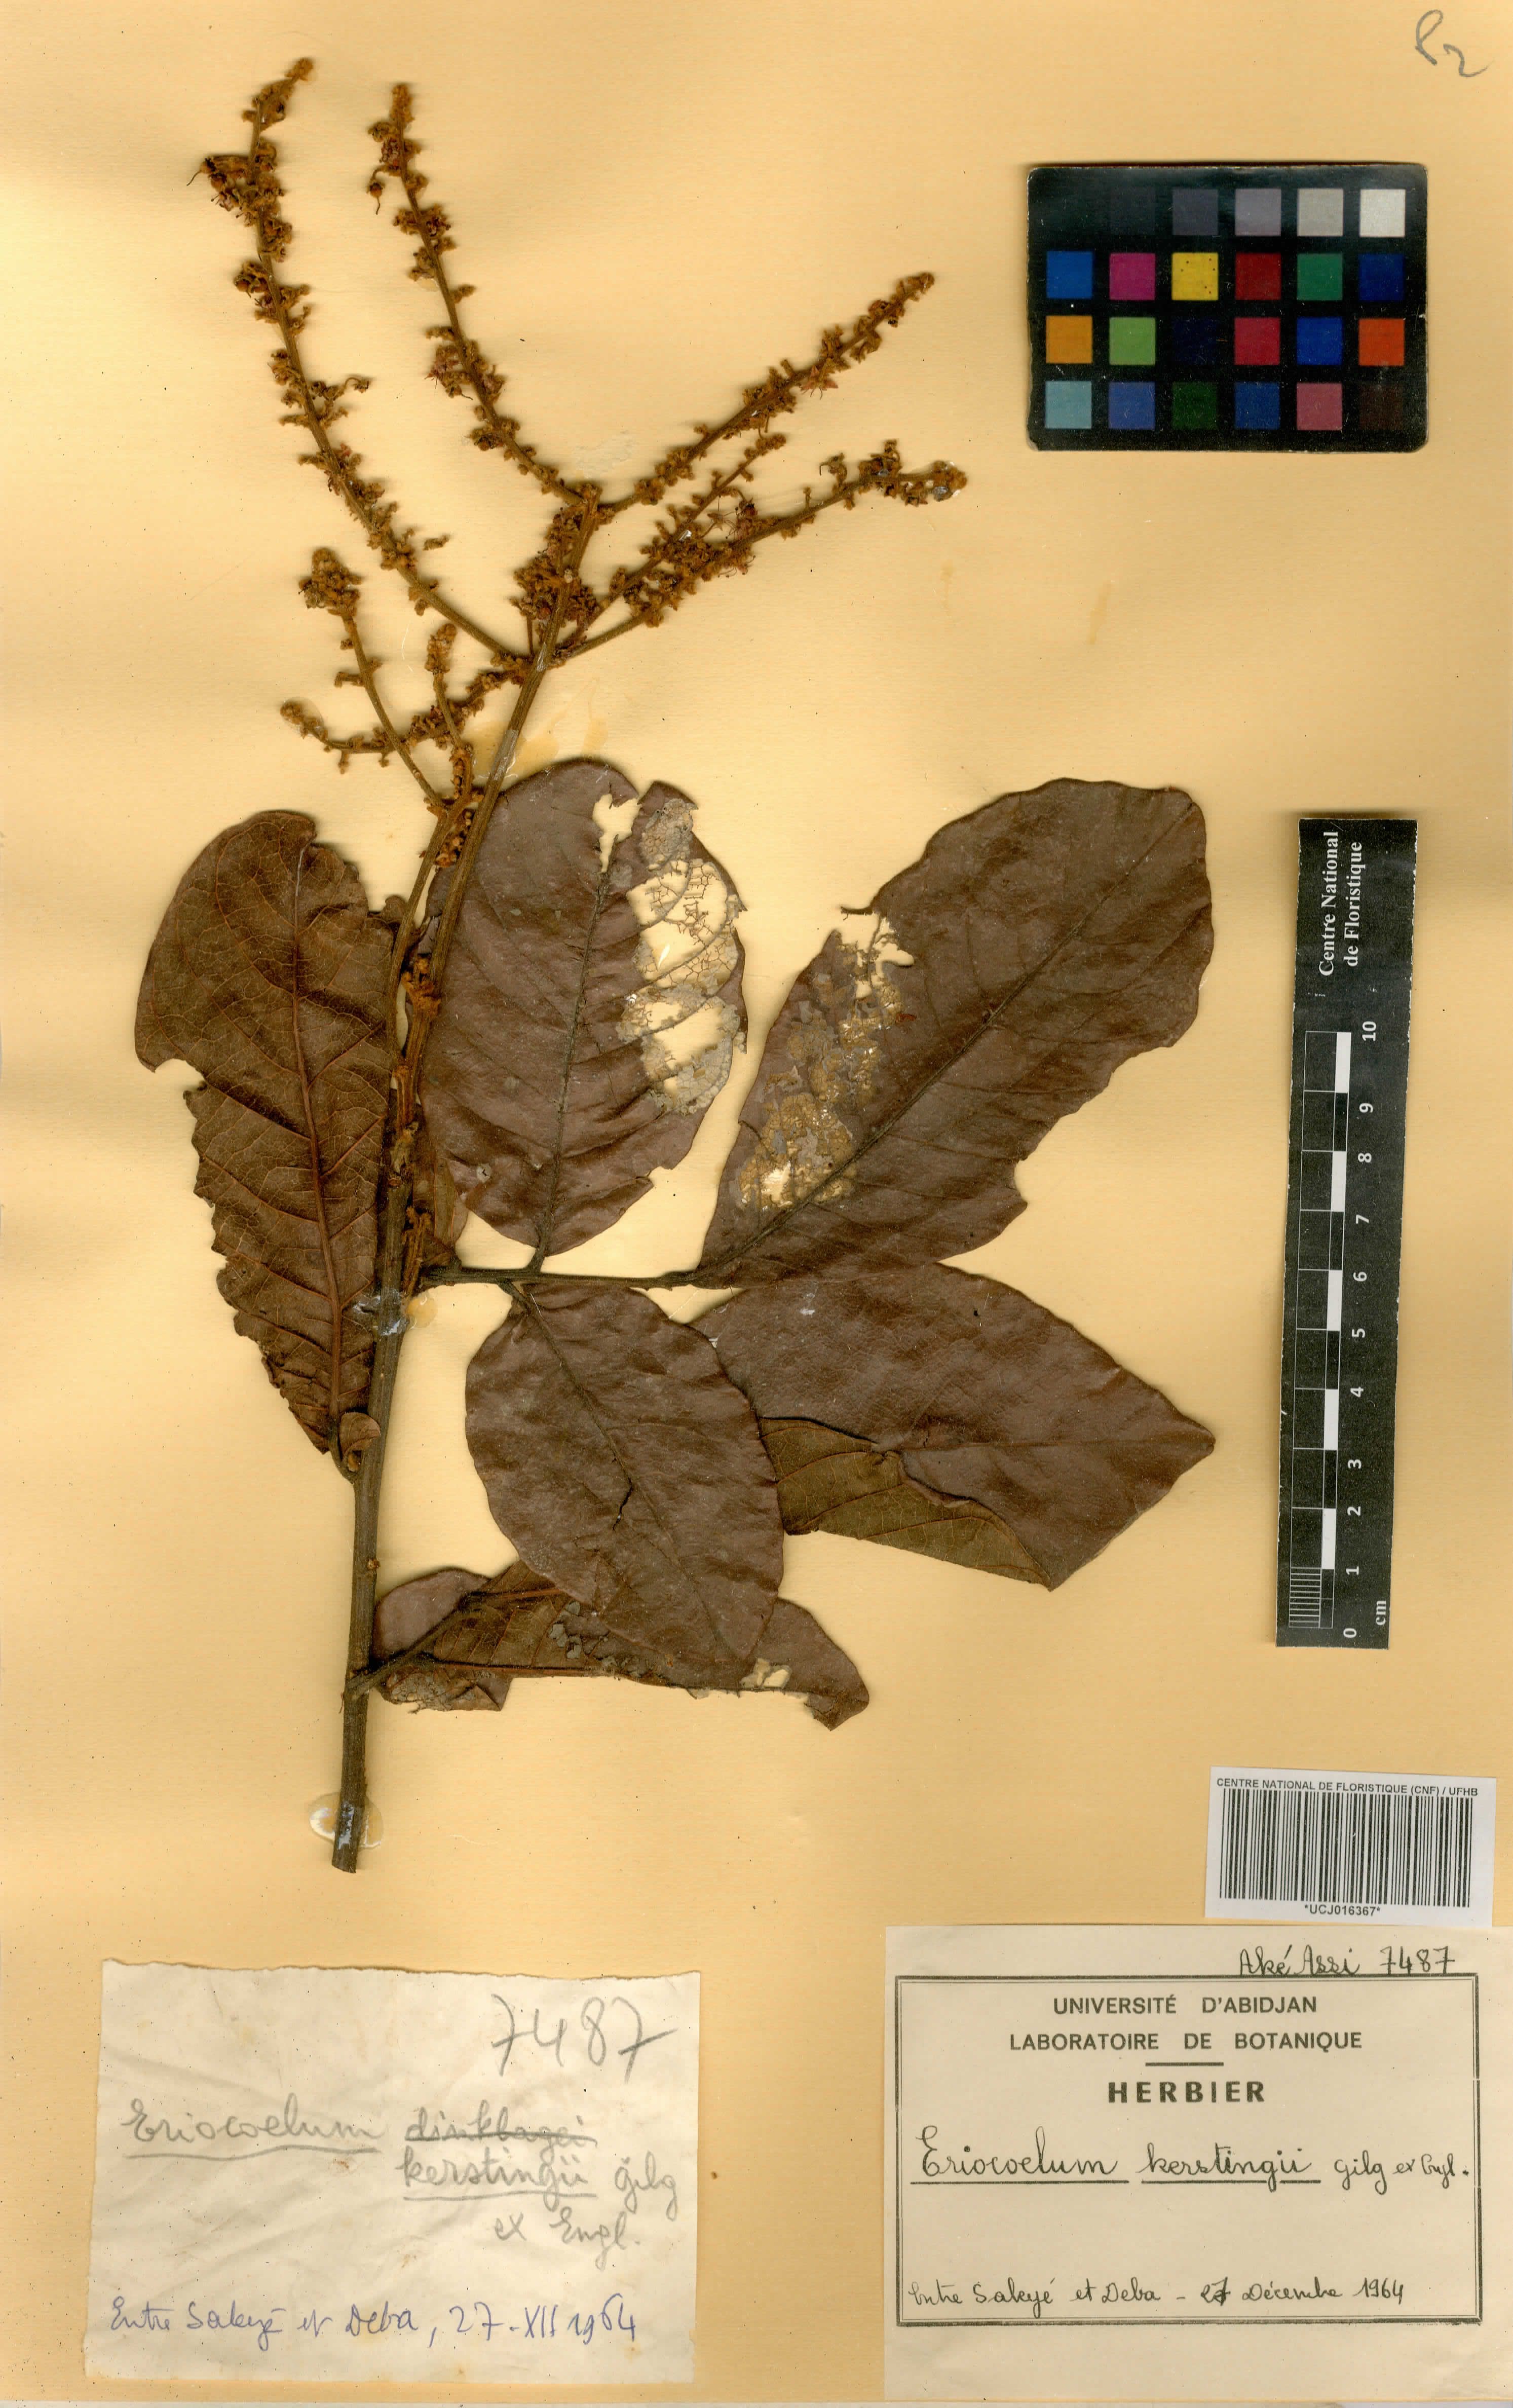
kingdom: Plantae
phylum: Tracheophyta
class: Magnoliopsida
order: Sapindales
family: Sapindaceae
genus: Eriocoelum
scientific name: Eriocoelum kerstingii
